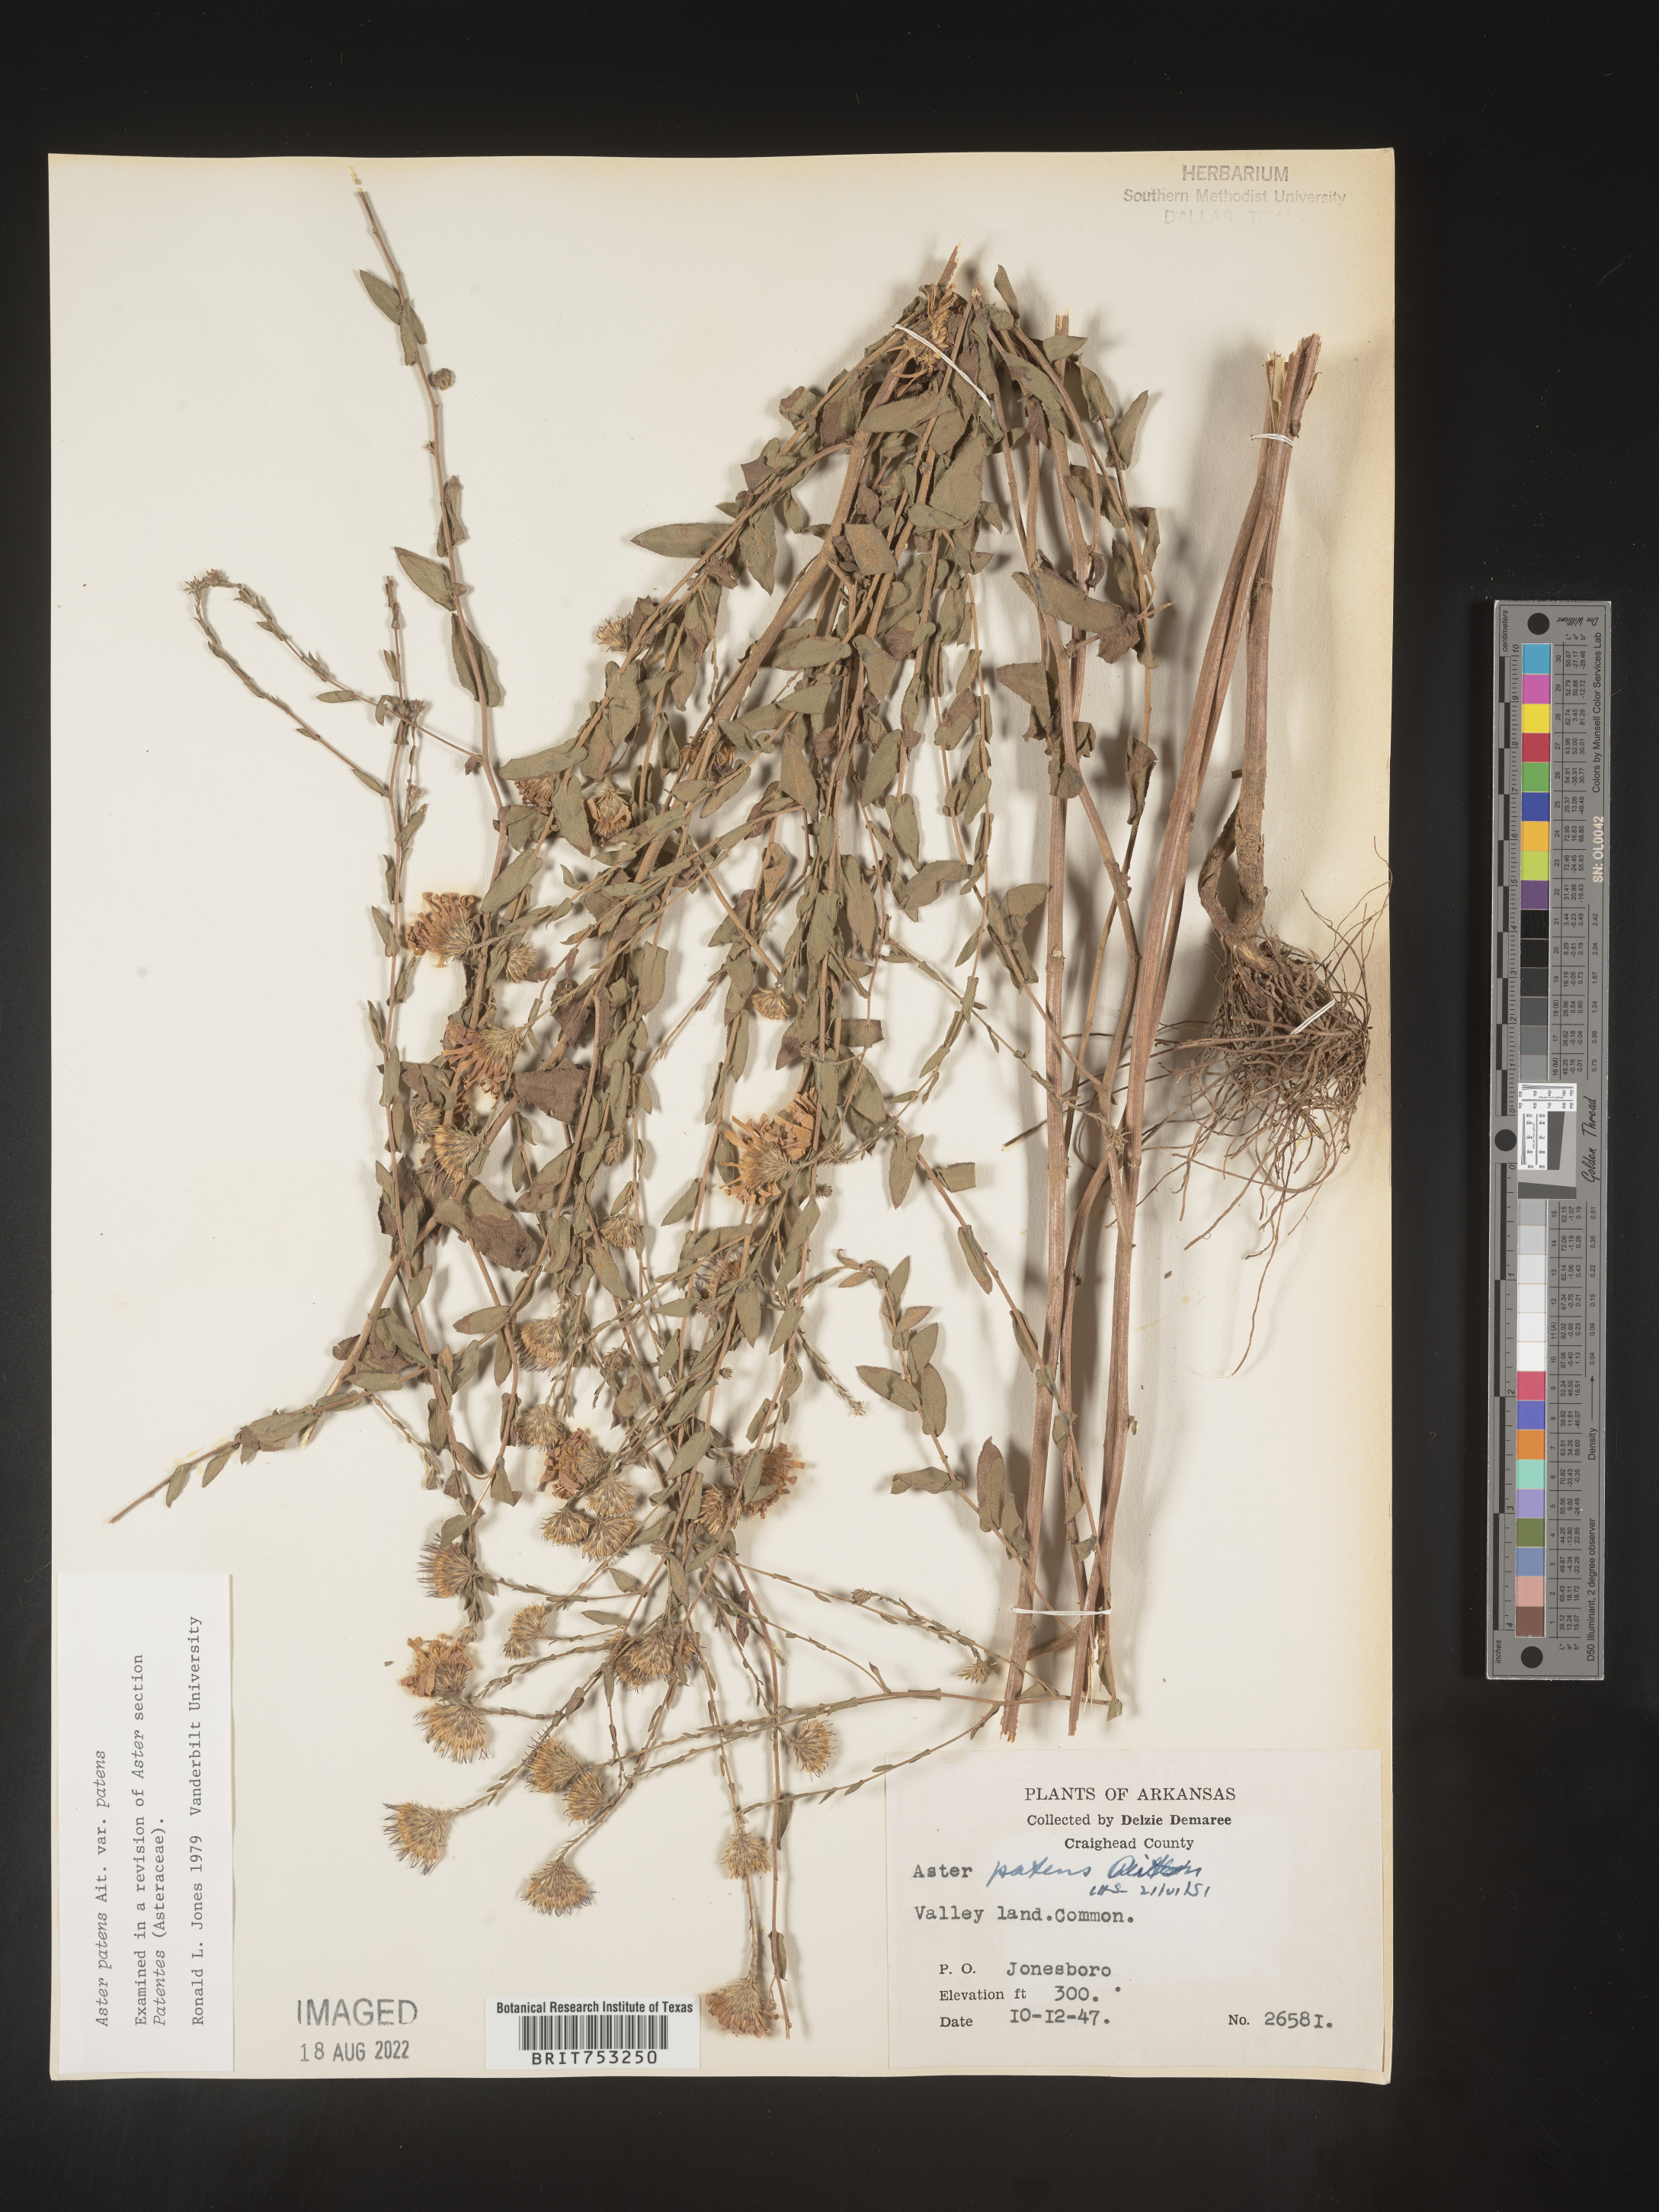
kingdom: Plantae
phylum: Tracheophyta
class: Magnoliopsida
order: Asterales
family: Asteraceae
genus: Symphyotrichum
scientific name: Symphyotrichum patens
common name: Late purple aster
